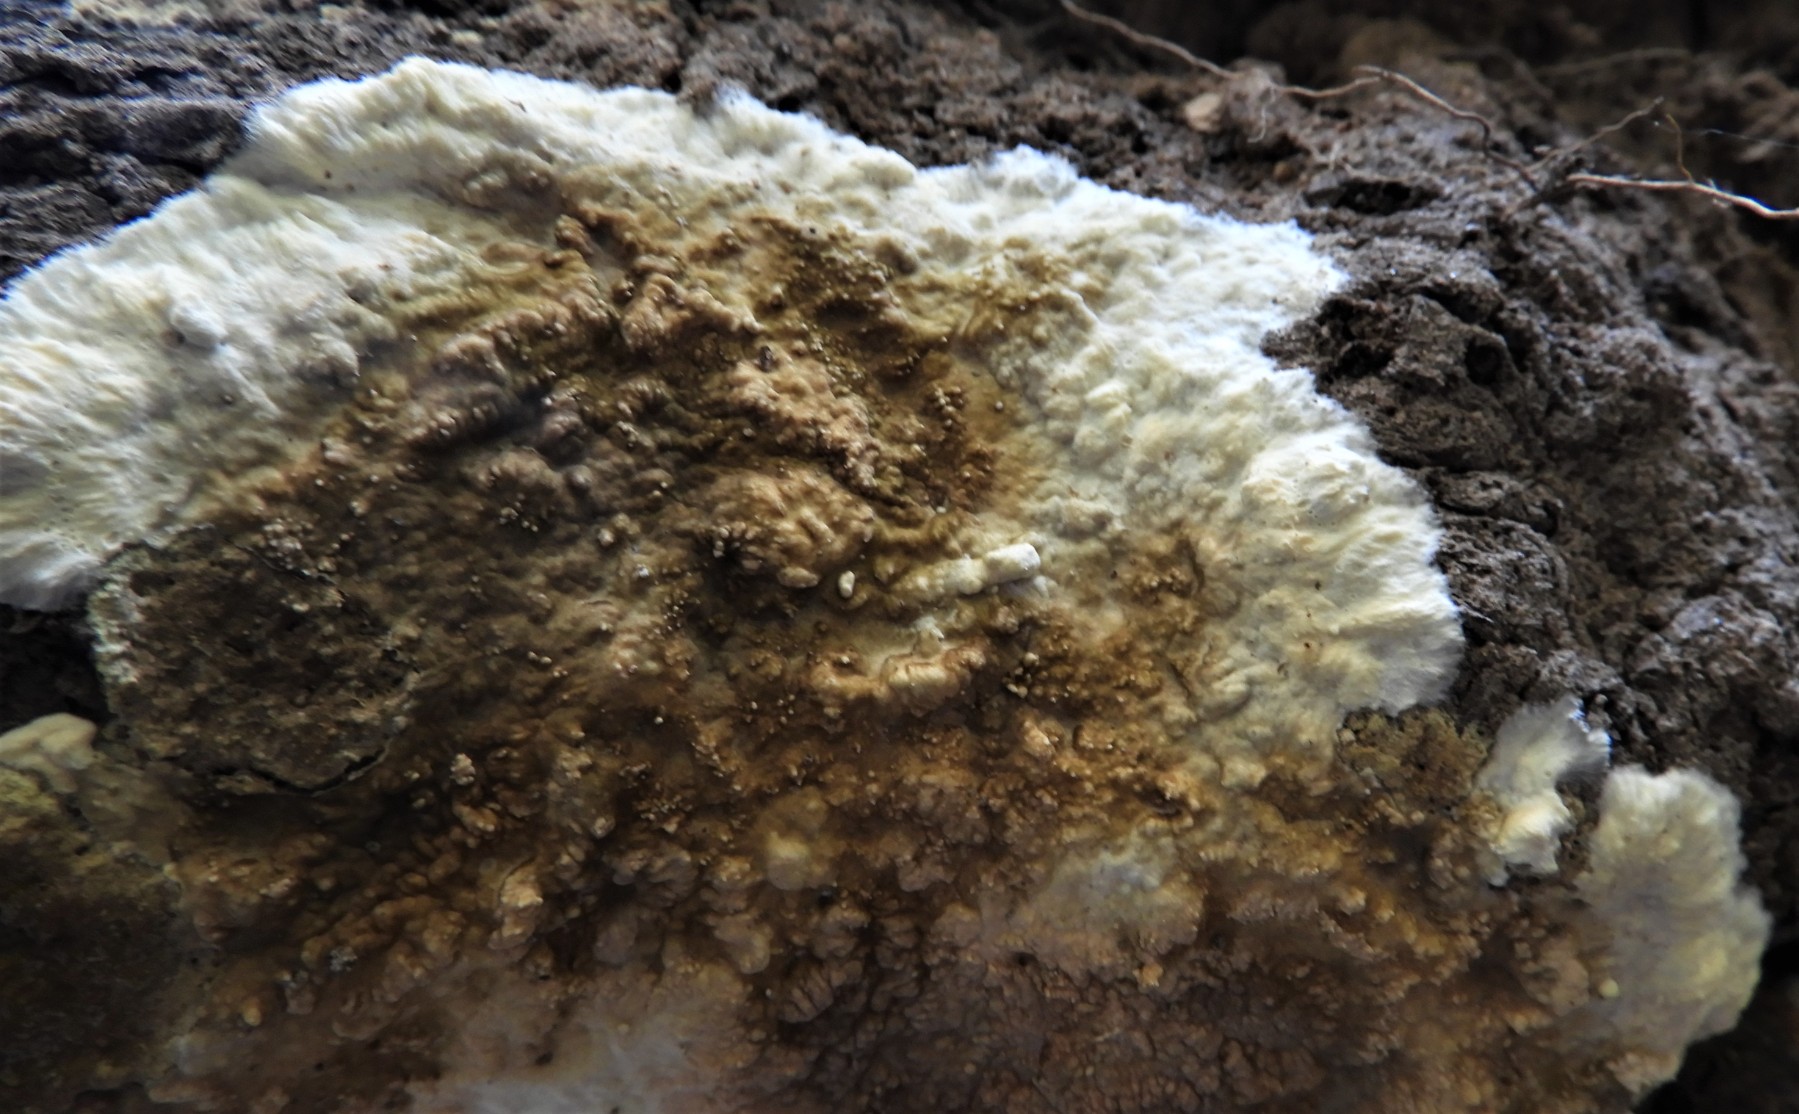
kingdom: Fungi
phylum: Basidiomycota
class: Agaricomycetes
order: Boletales
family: Coniophoraceae
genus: Coniophora
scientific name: Coniophora puteana
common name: gul tømmersvamp
